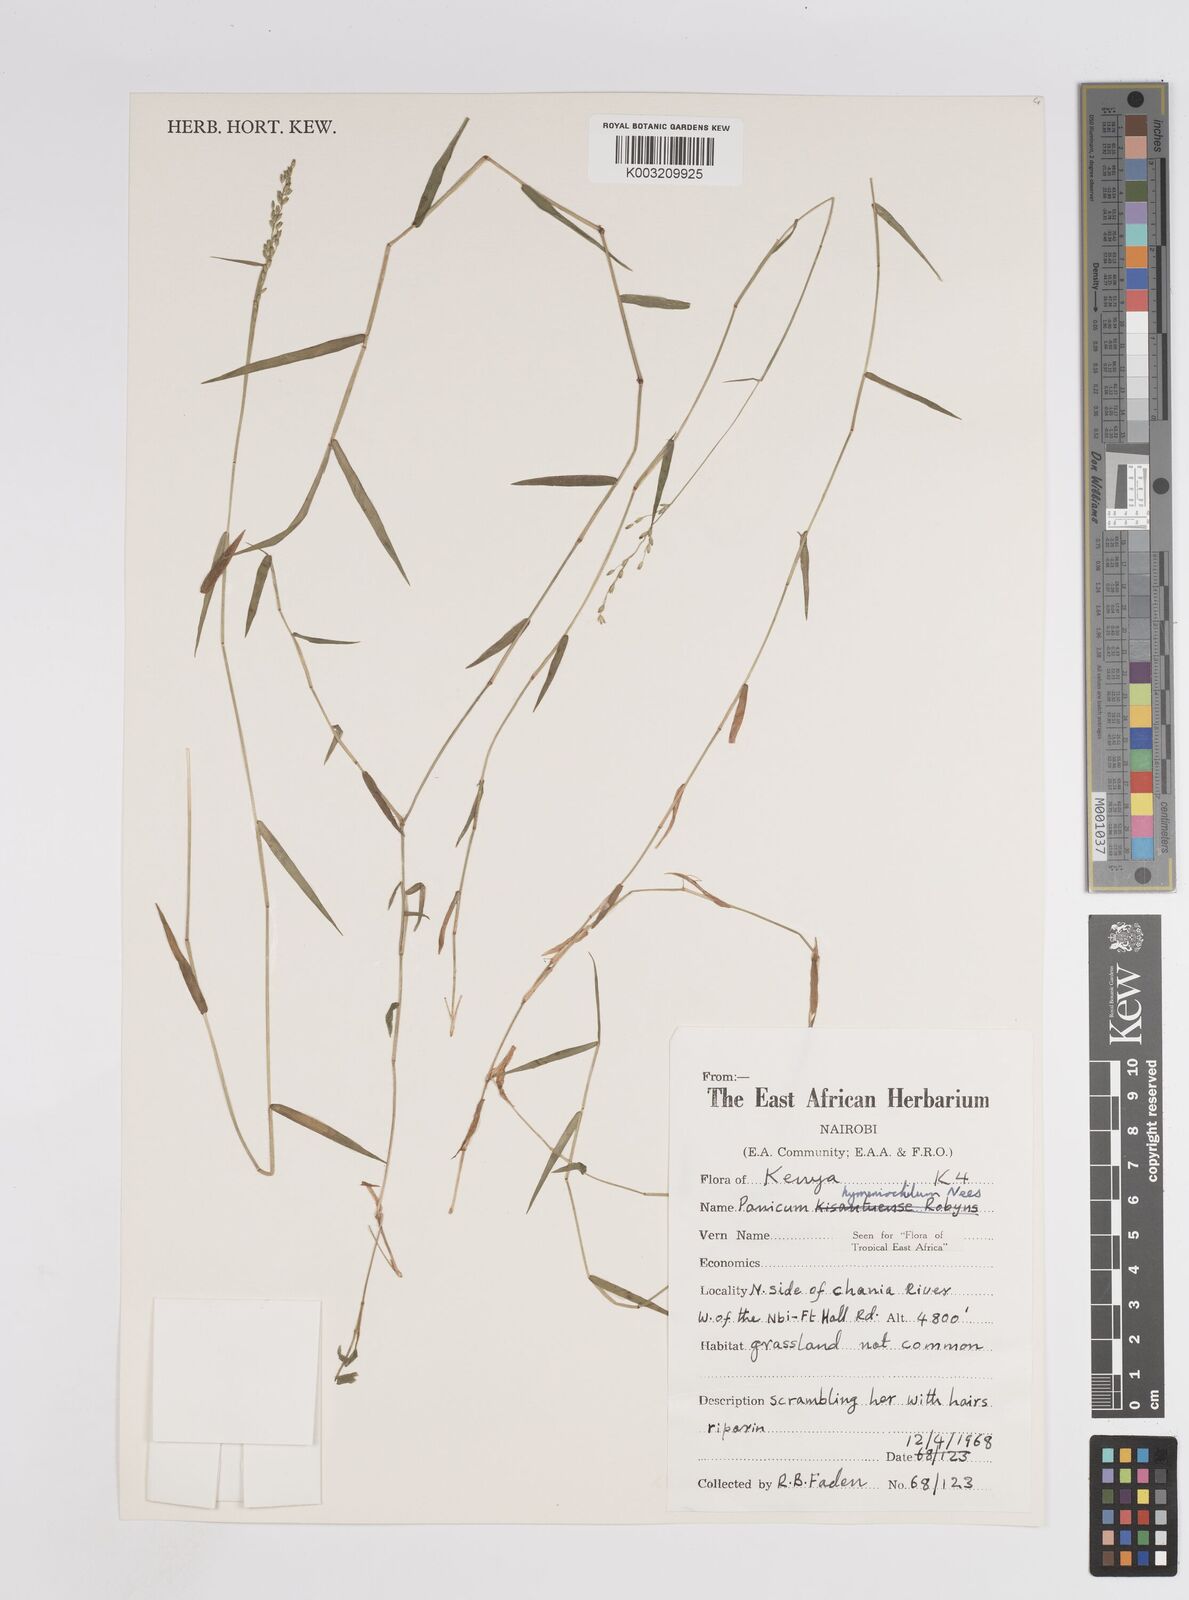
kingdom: Plantae
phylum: Tracheophyta
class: Liliopsida
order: Poales
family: Poaceae
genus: Adenochloa
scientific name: Adenochloa hymeniochila
